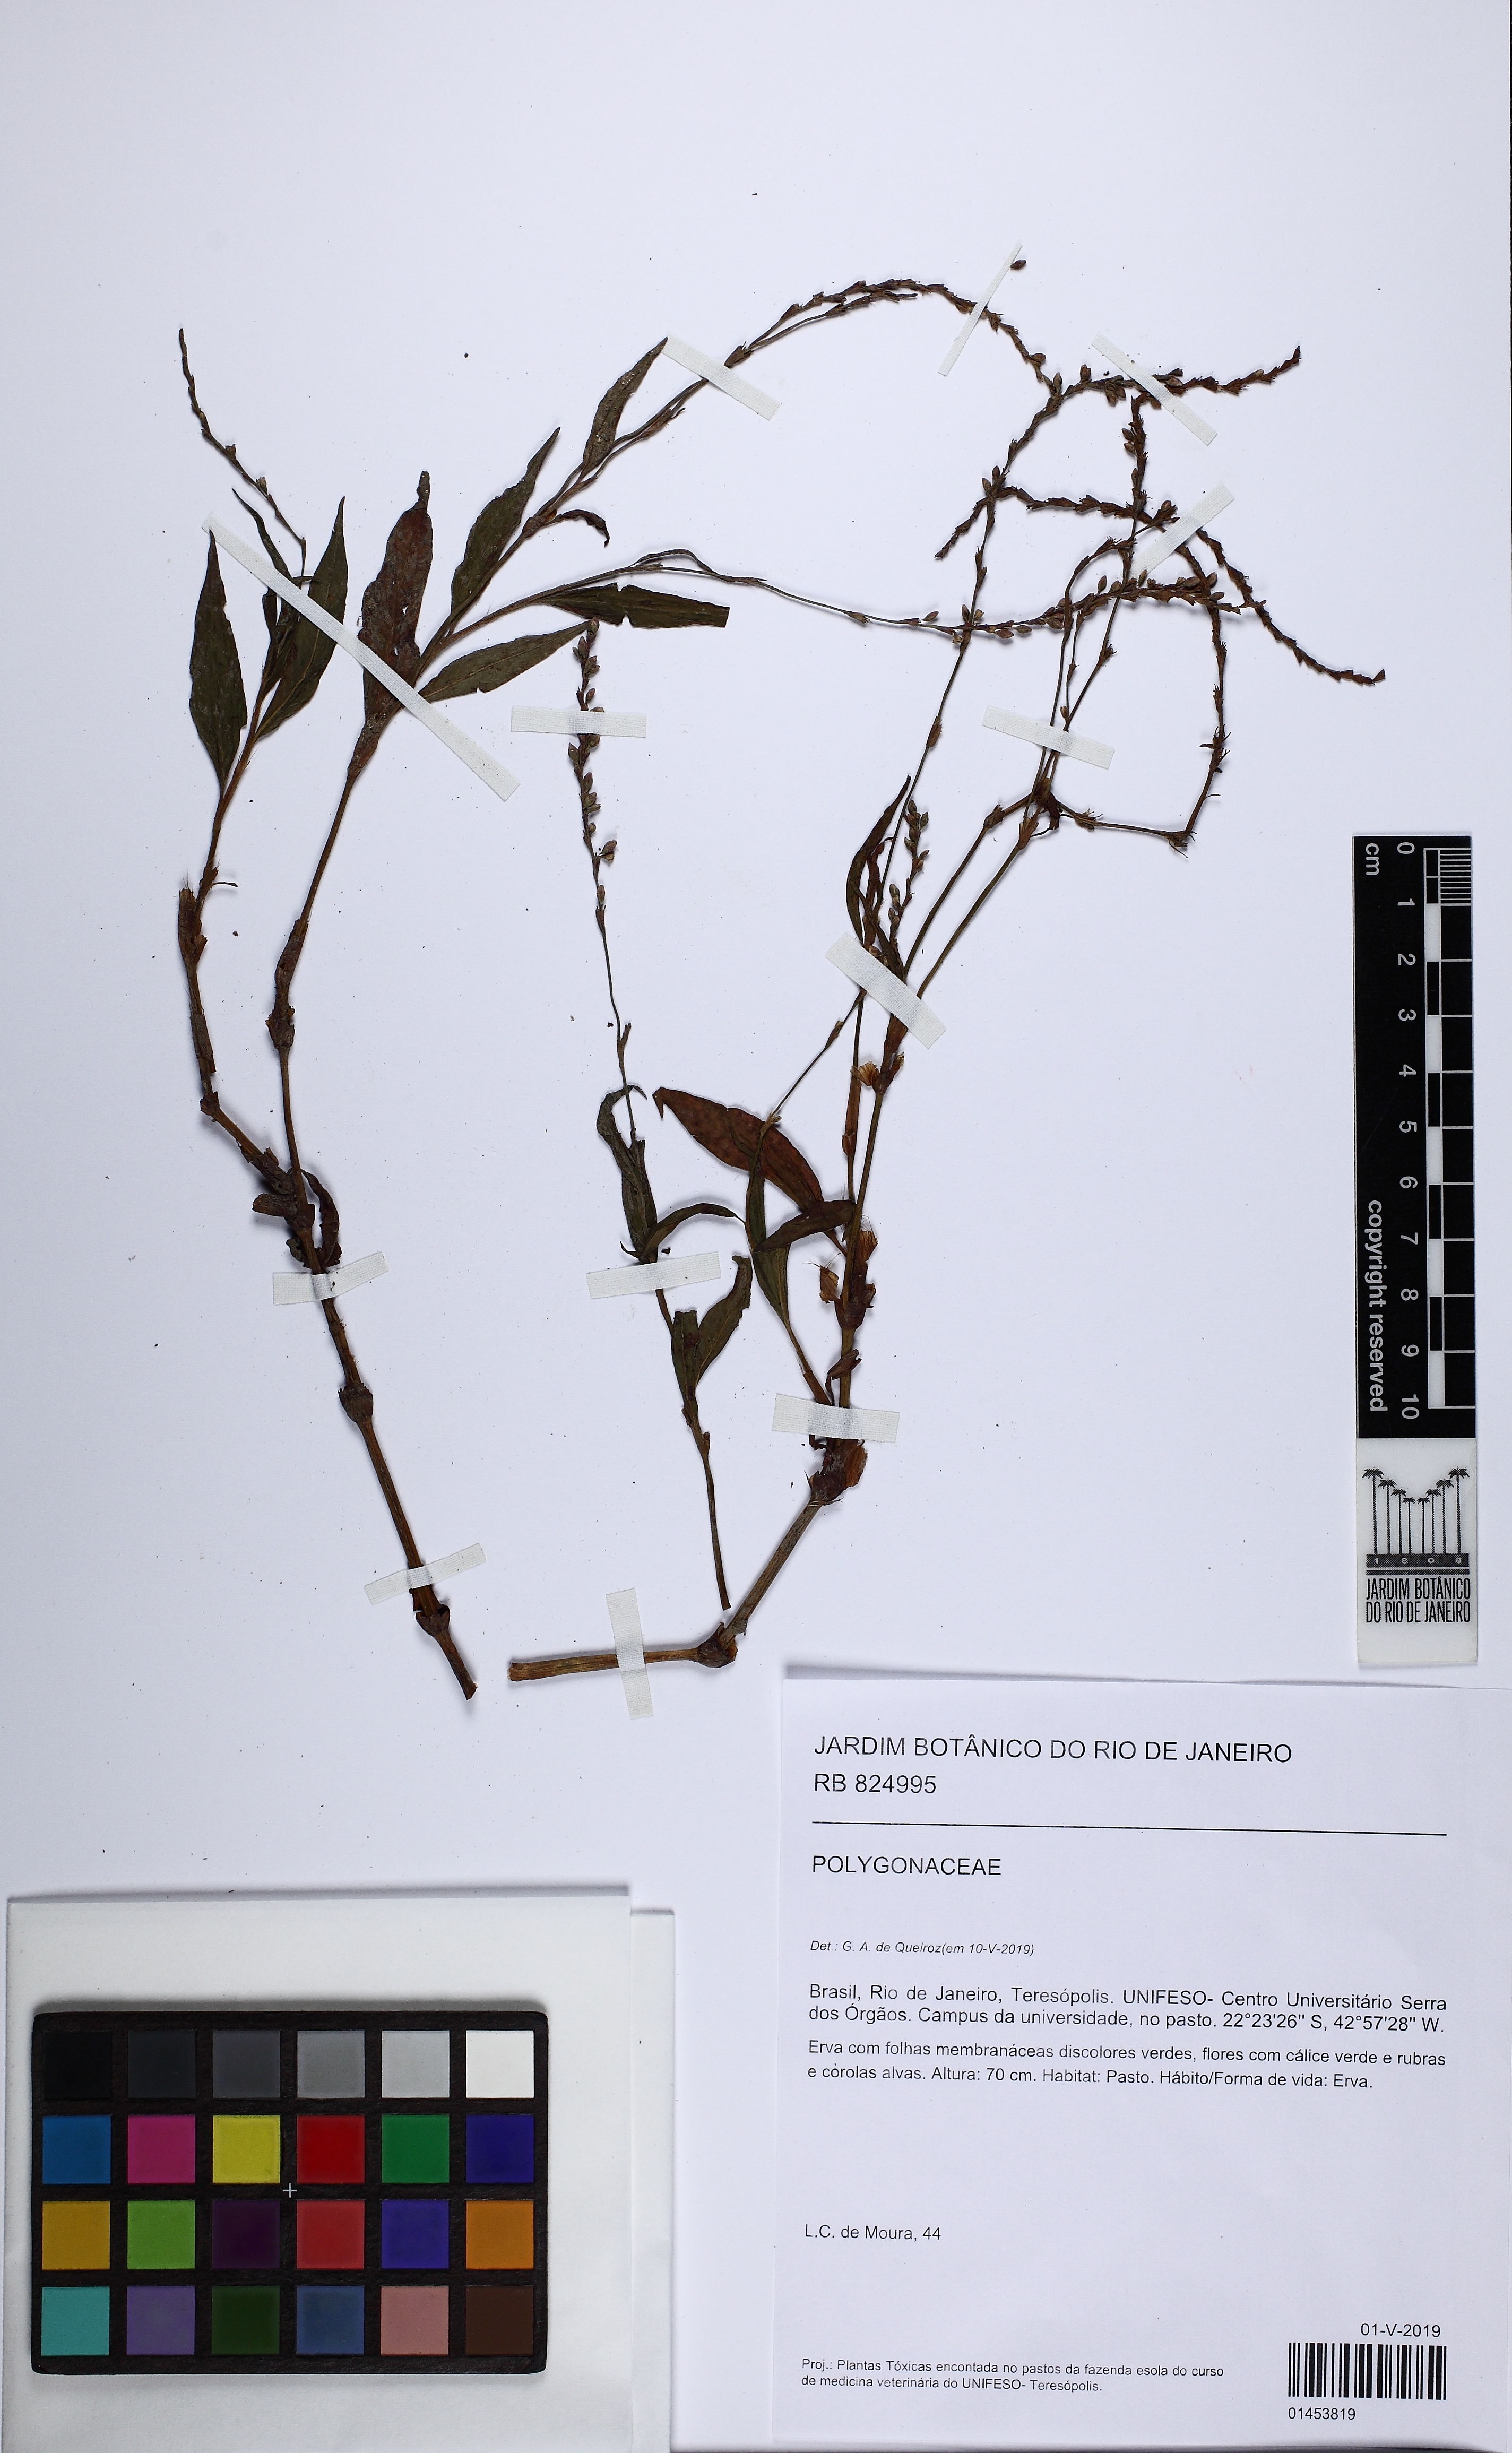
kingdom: Plantae
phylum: Tracheophyta
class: Magnoliopsida
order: Caryophyllales
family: Polygonaceae
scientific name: Polygonaceae
